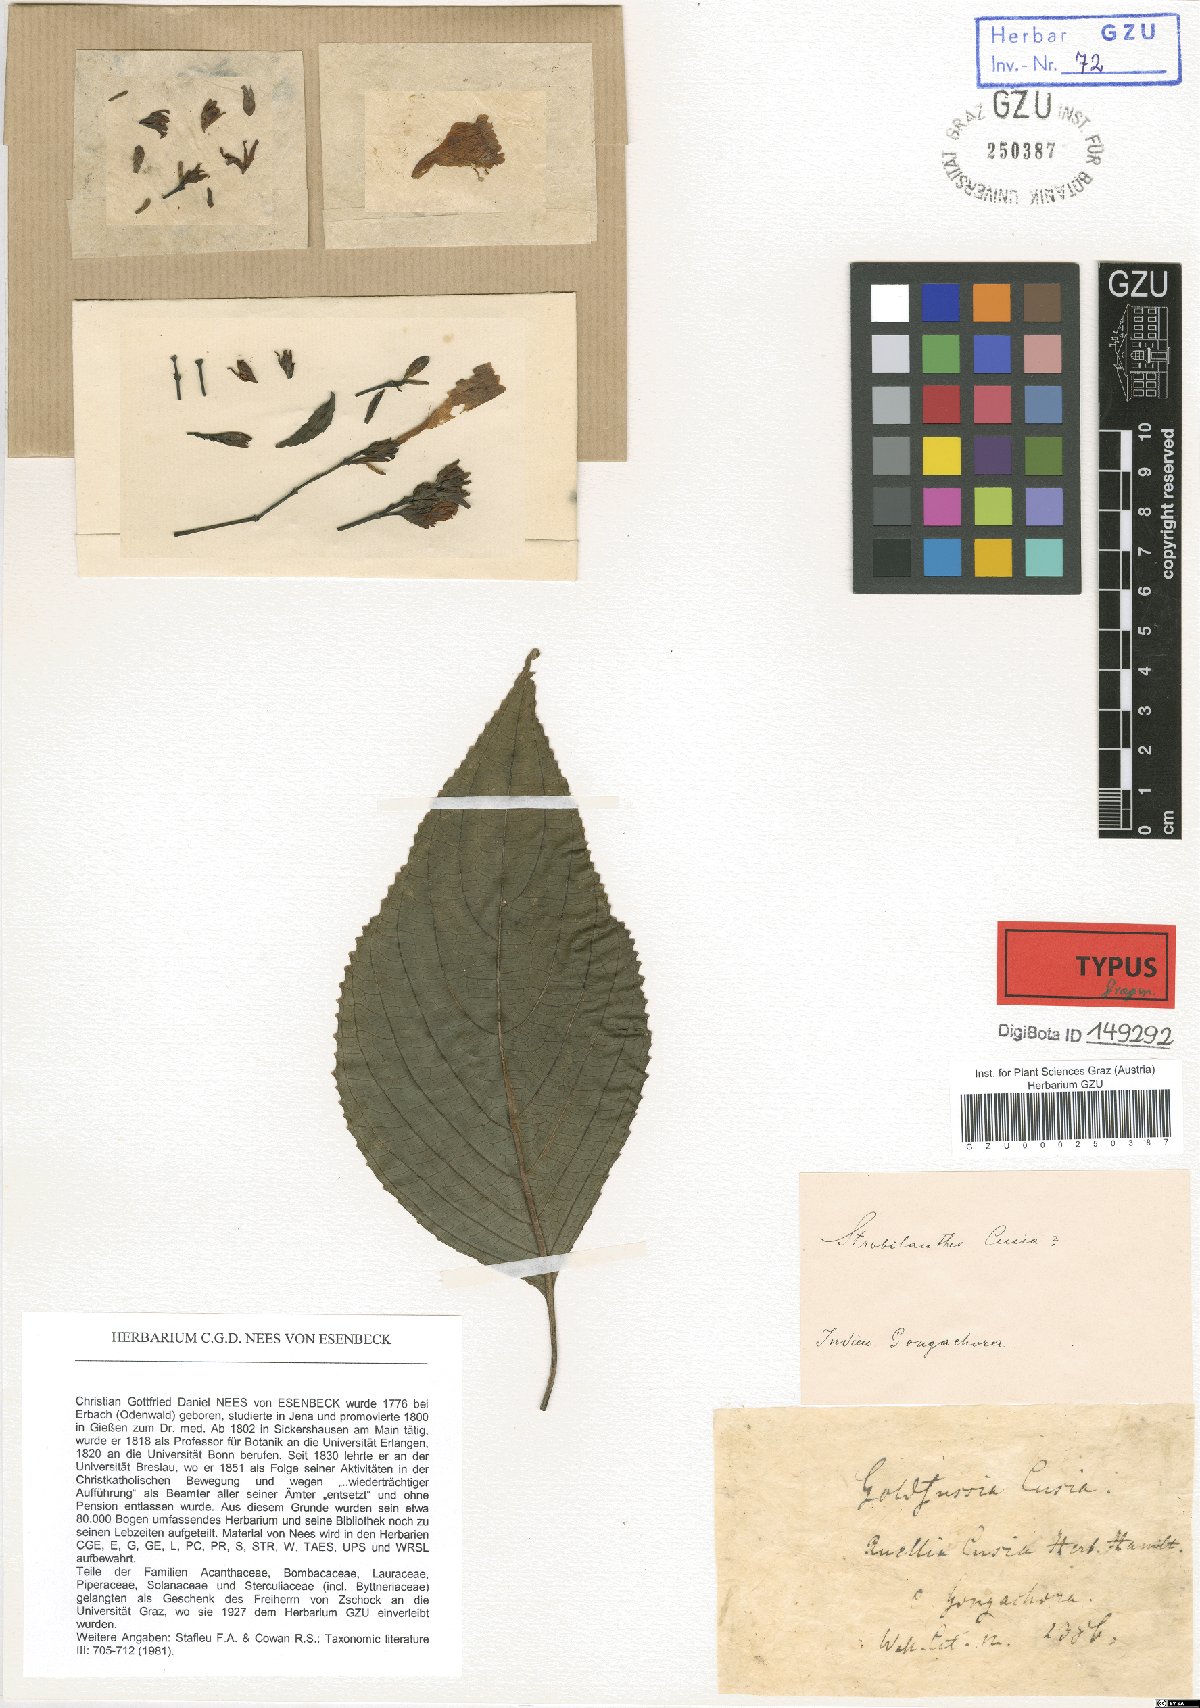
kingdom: Plantae
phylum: Tracheophyta
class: Magnoliopsida
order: Lamiales
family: Acanthaceae
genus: Strobilanthes
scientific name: Strobilanthes cusia
